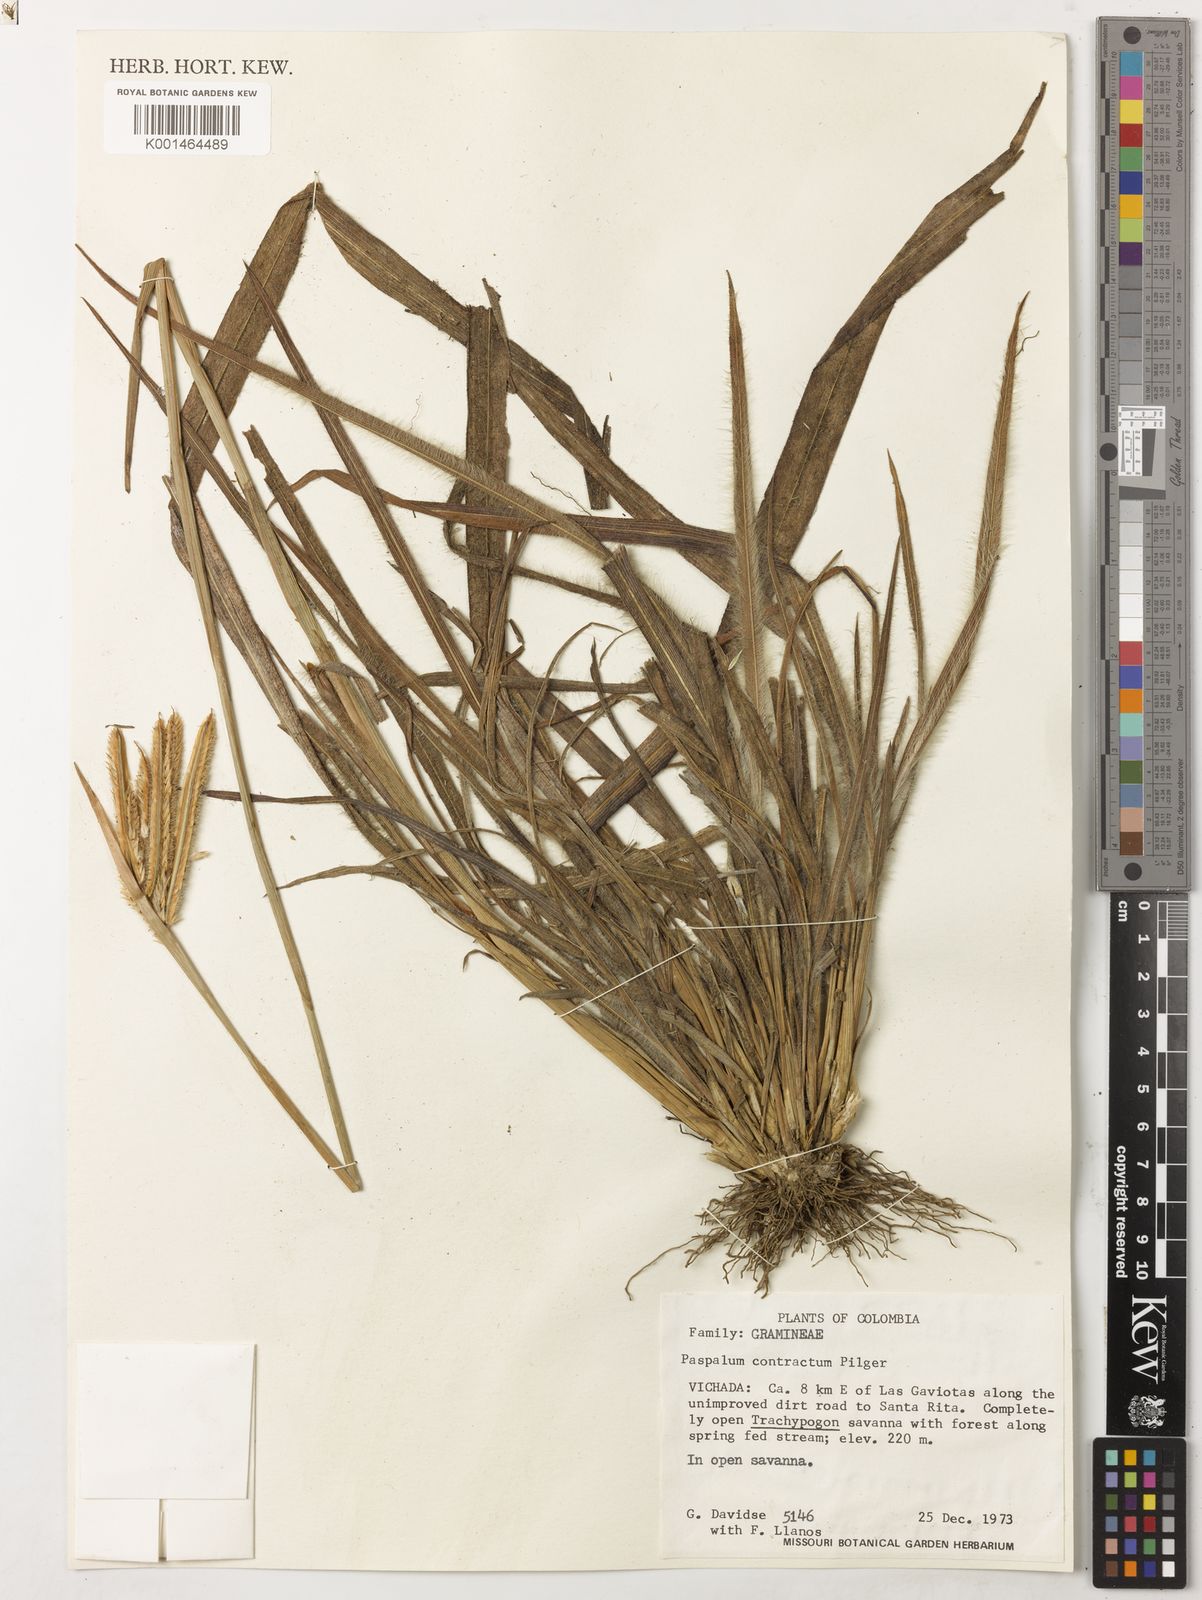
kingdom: Plantae
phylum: Tracheophyta
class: Liliopsida
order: Poales
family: Poaceae
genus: Paspalum
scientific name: Paspalum lanciflorum
